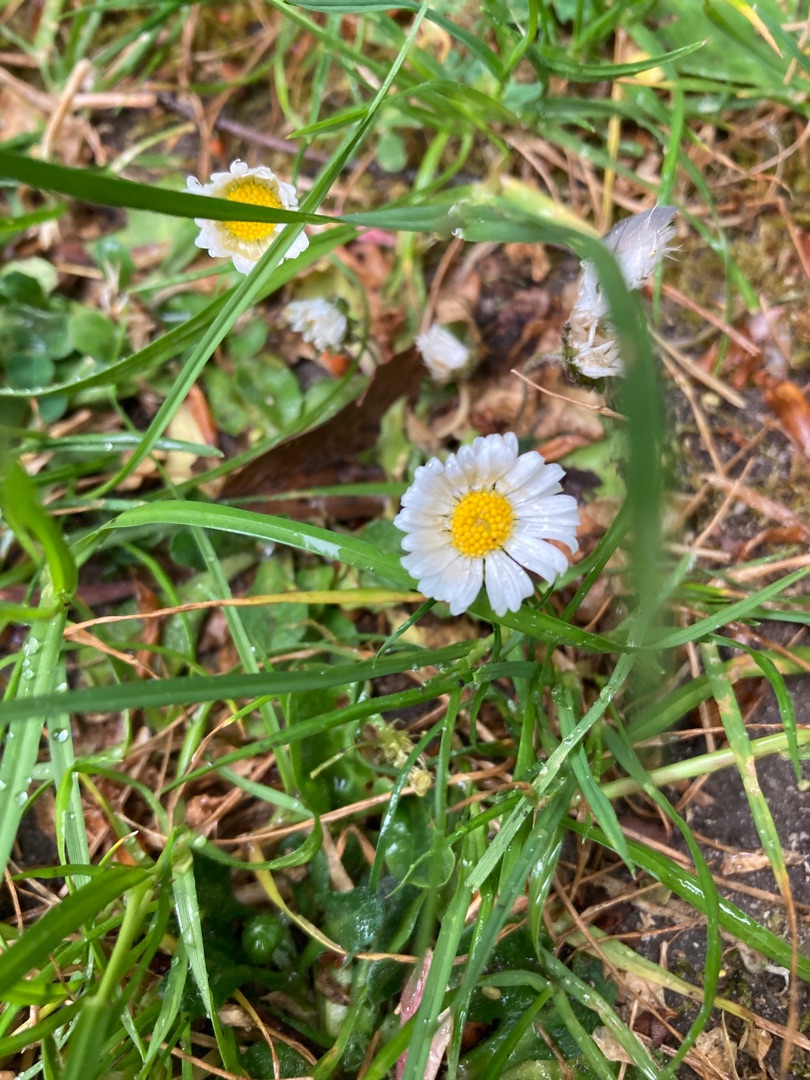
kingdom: Plantae
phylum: Tracheophyta
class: Magnoliopsida
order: Asterales
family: Asteraceae
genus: Bellis
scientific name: Bellis perennis
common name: Tusindfryd
